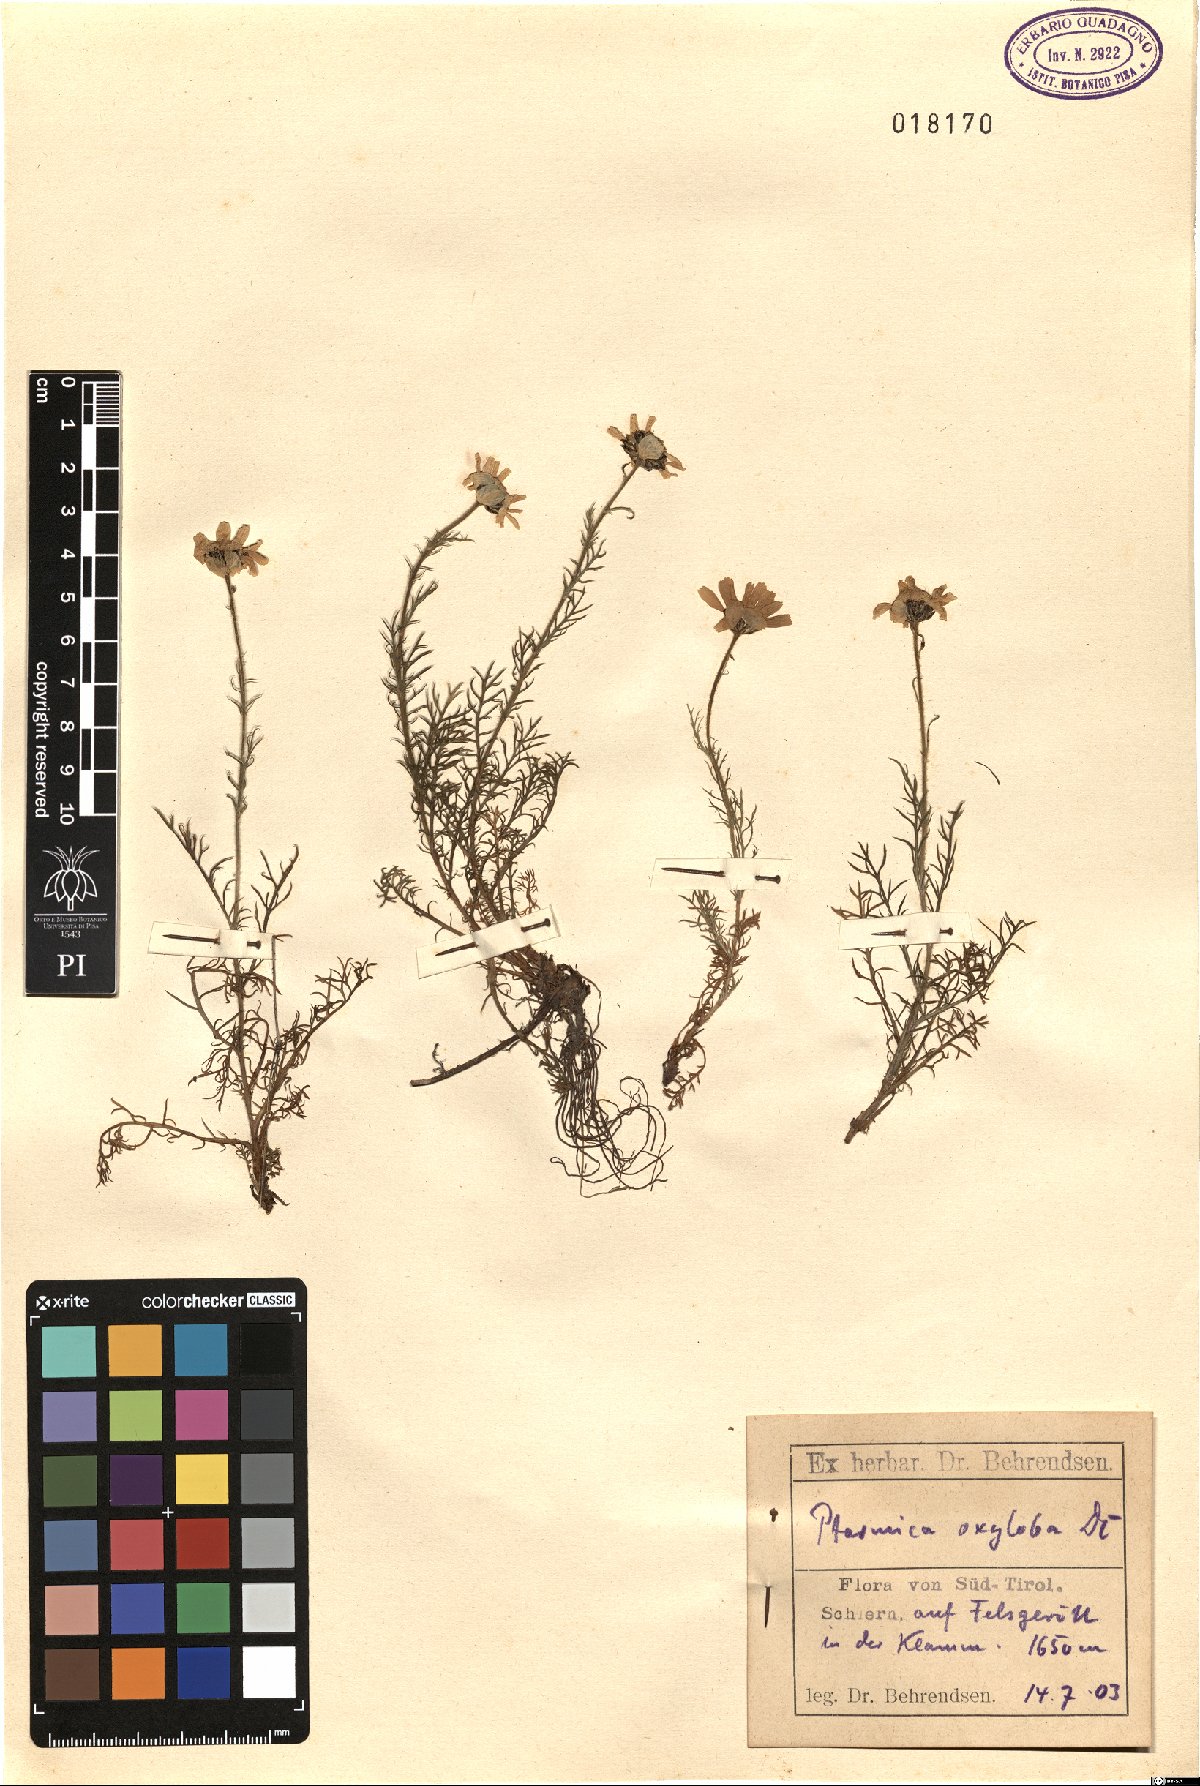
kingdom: Plantae
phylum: Tracheophyta
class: Magnoliopsida
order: Asterales
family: Asteraceae
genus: Achillea
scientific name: Achillea oxyloba
